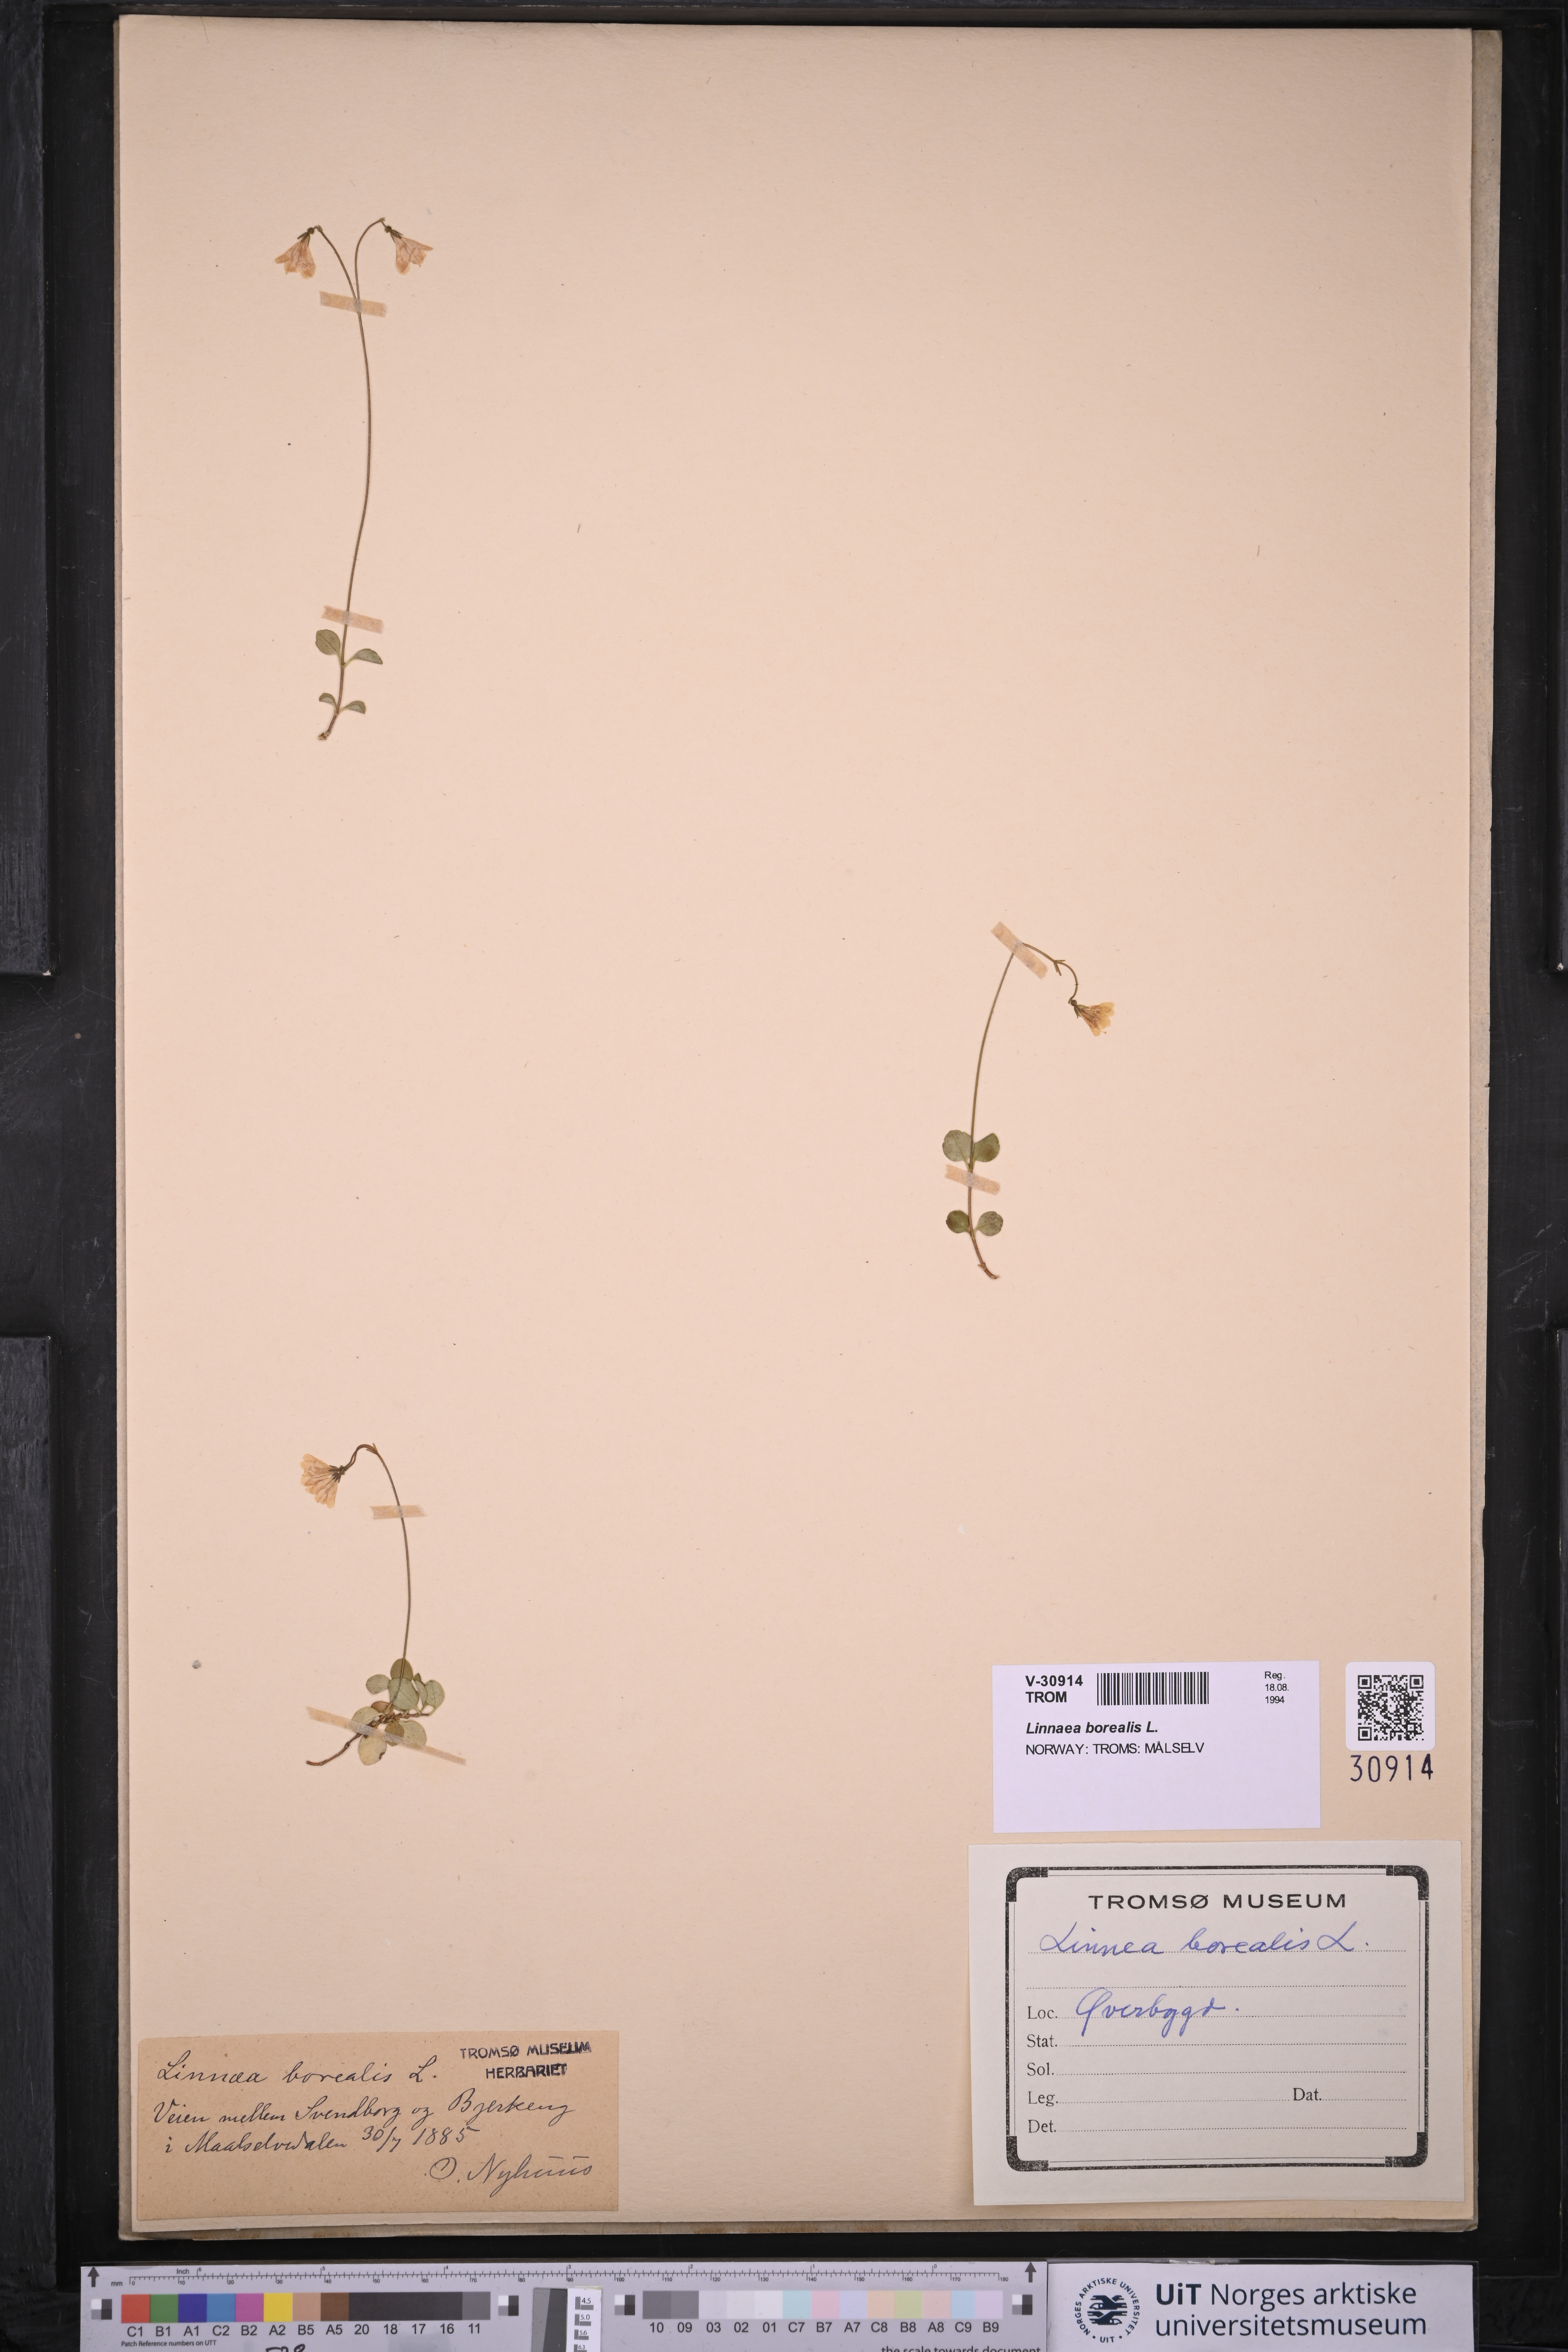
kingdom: Plantae
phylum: Tracheophyta
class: Magnoliopsida
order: Dipsacales
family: Caprifoliaceae
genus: Linnaea
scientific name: Linnaea borealis
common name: Twinflower
